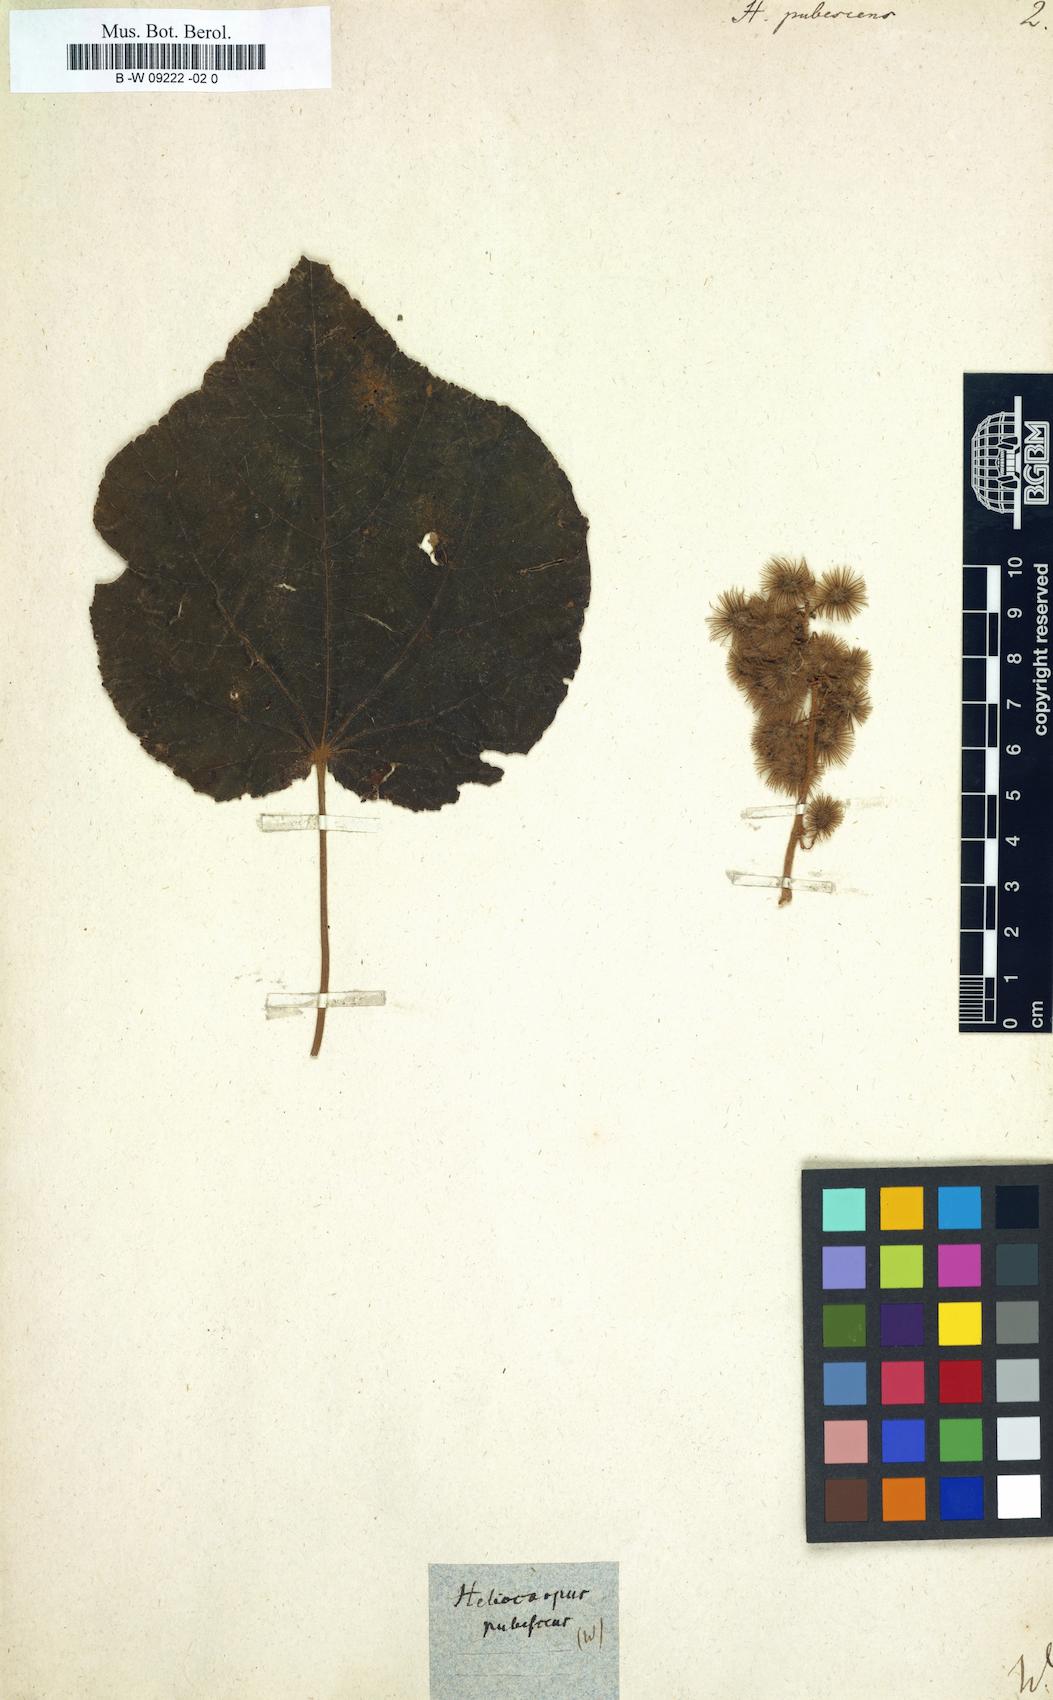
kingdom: Plantae
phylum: Tracheophyta
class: Magnoliopsida
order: Malvales
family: Malvaceae
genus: Heliocarpus
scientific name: Heliocarpus
